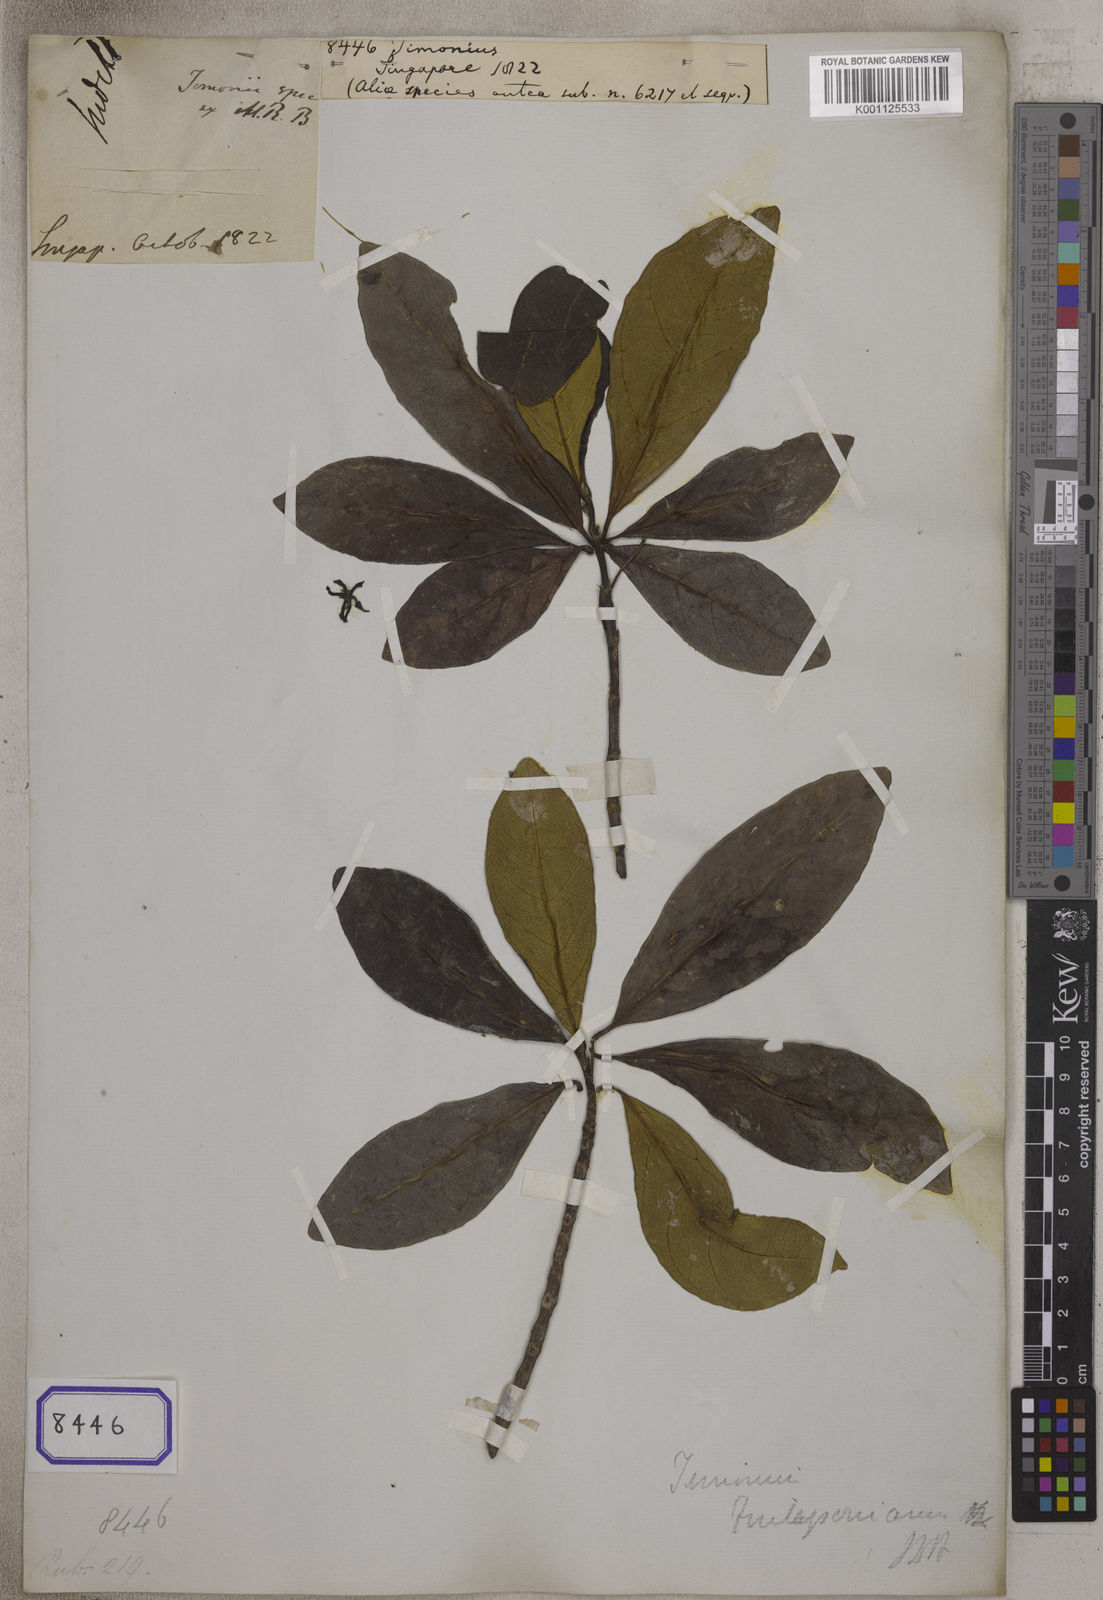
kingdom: Plantae
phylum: Tracheophyta
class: Magnoliopsida
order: Gentianales
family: Rubiaceae
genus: Timonius
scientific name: Timonius
